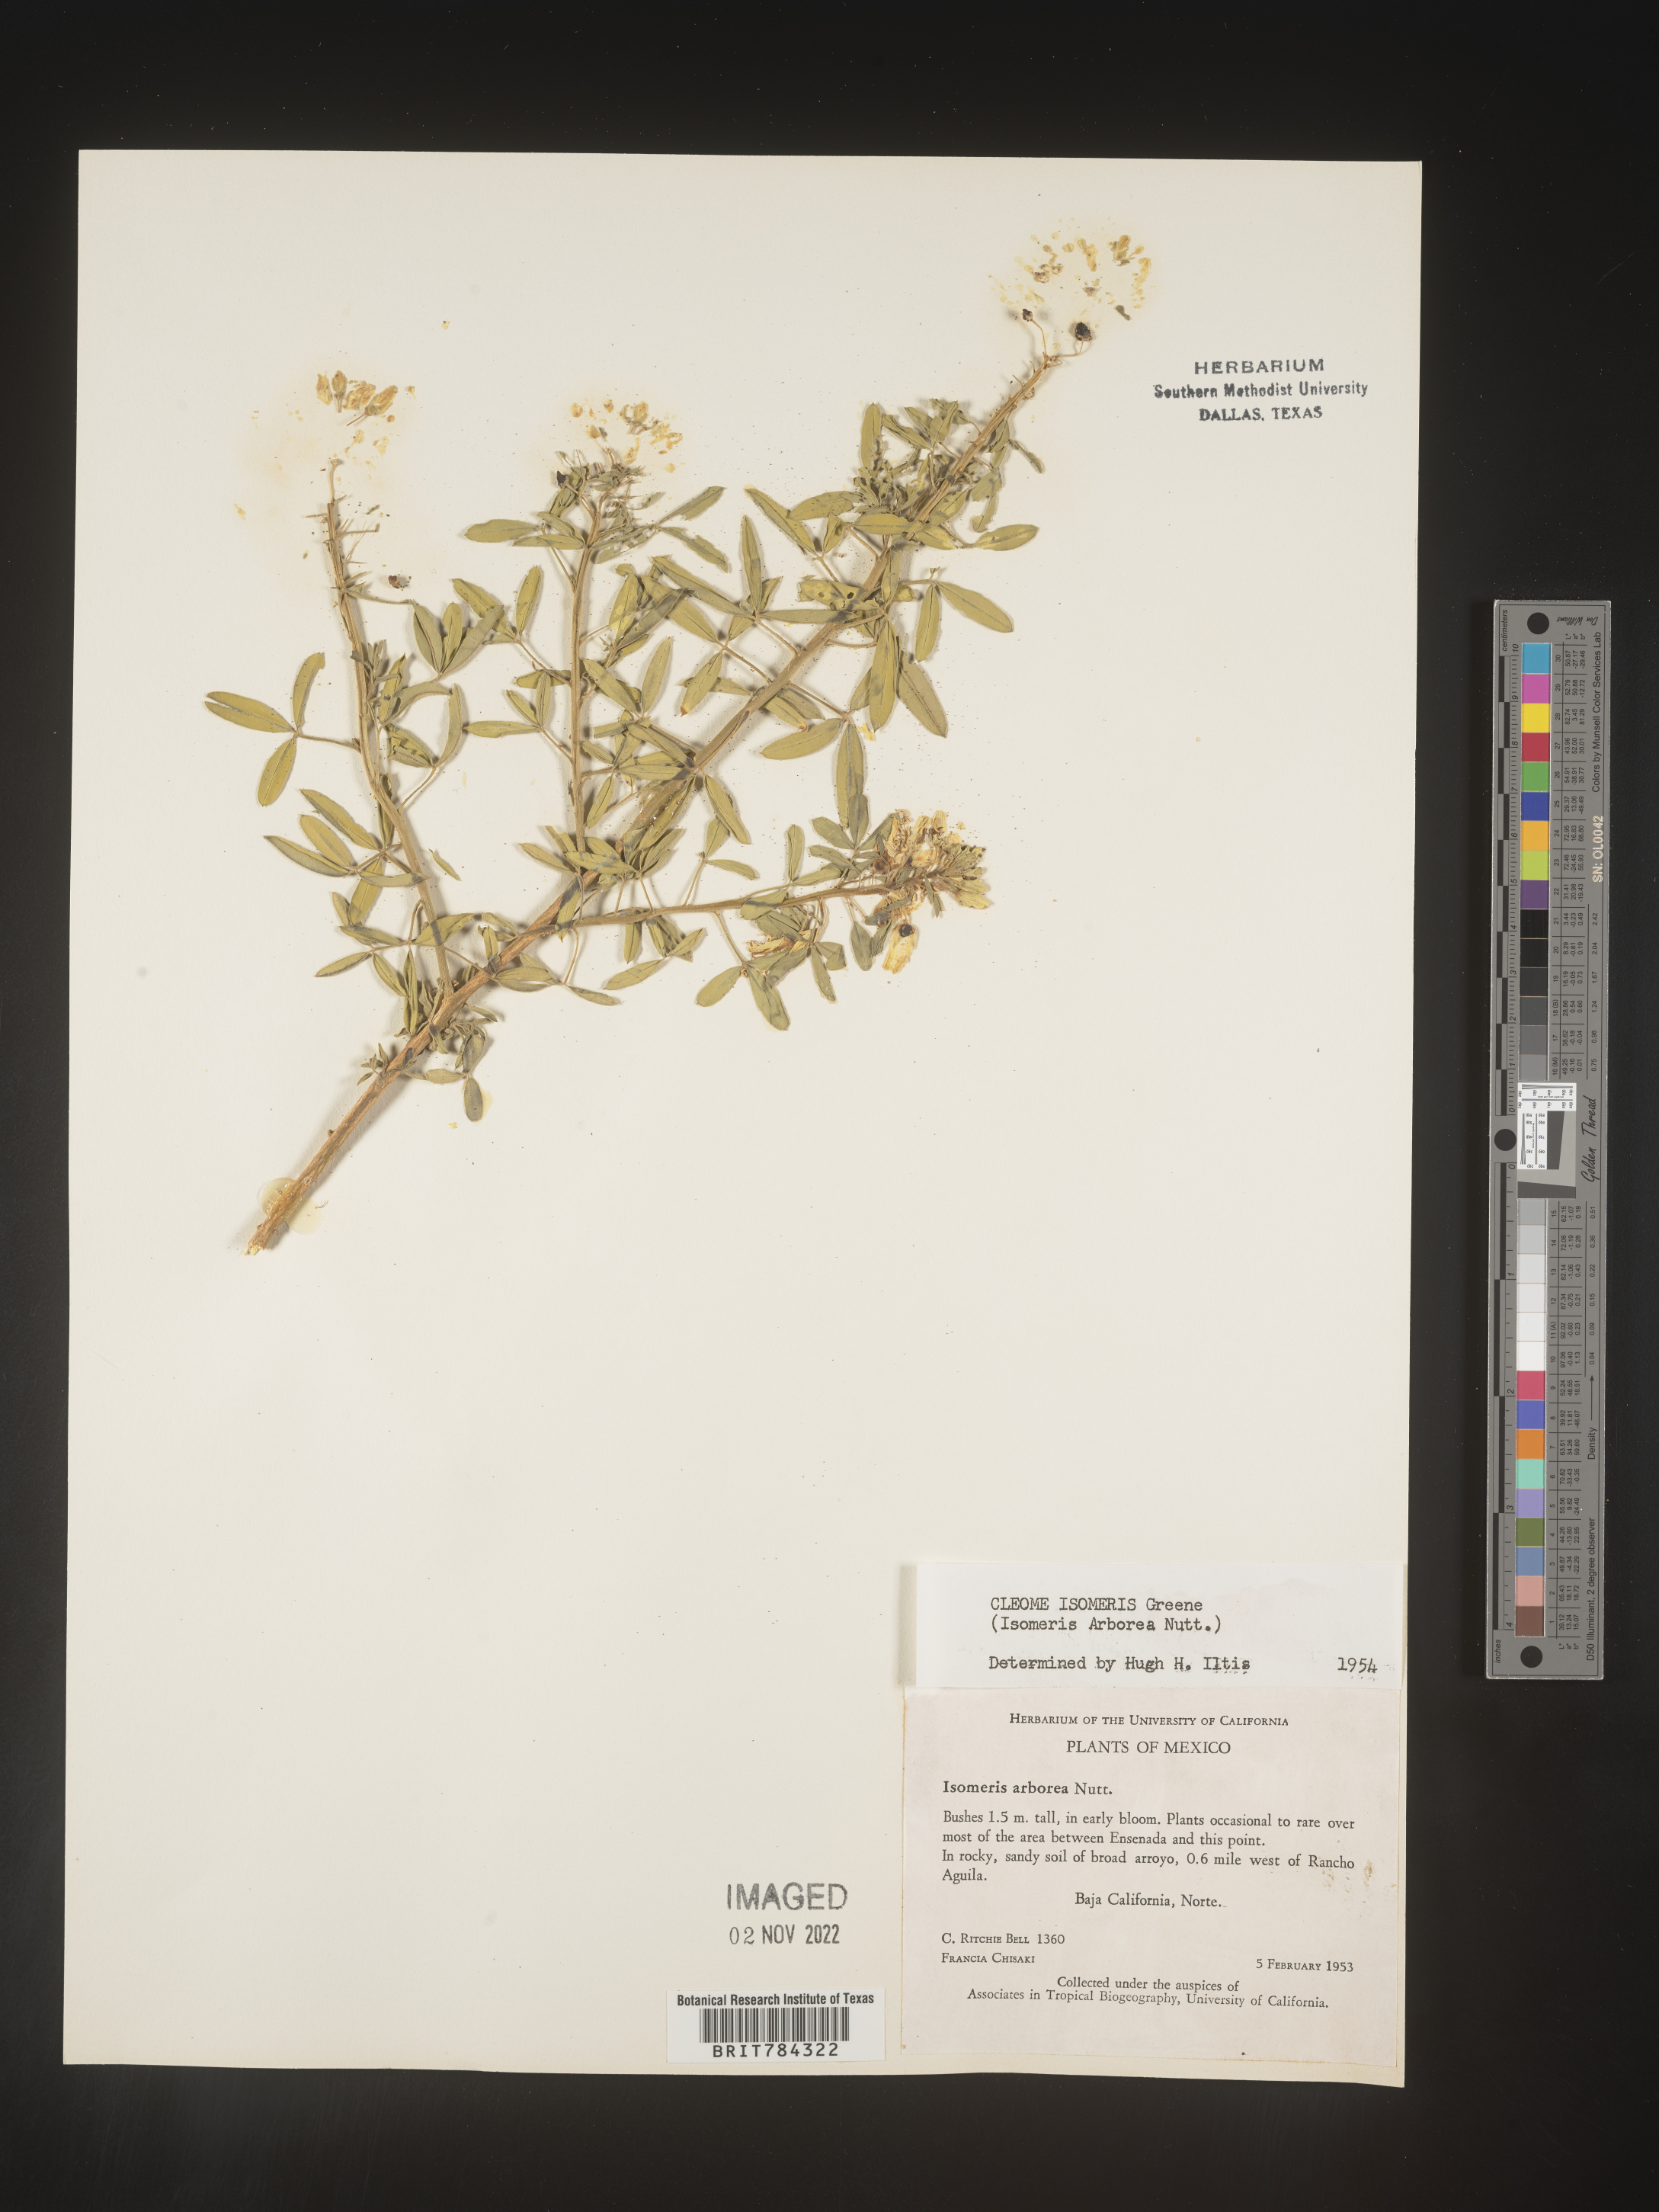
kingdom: Plantae
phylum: Tracheophyta
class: Magnoliopsida
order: Brassicales
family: Cleomaceae
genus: Cleome
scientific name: Cleome
